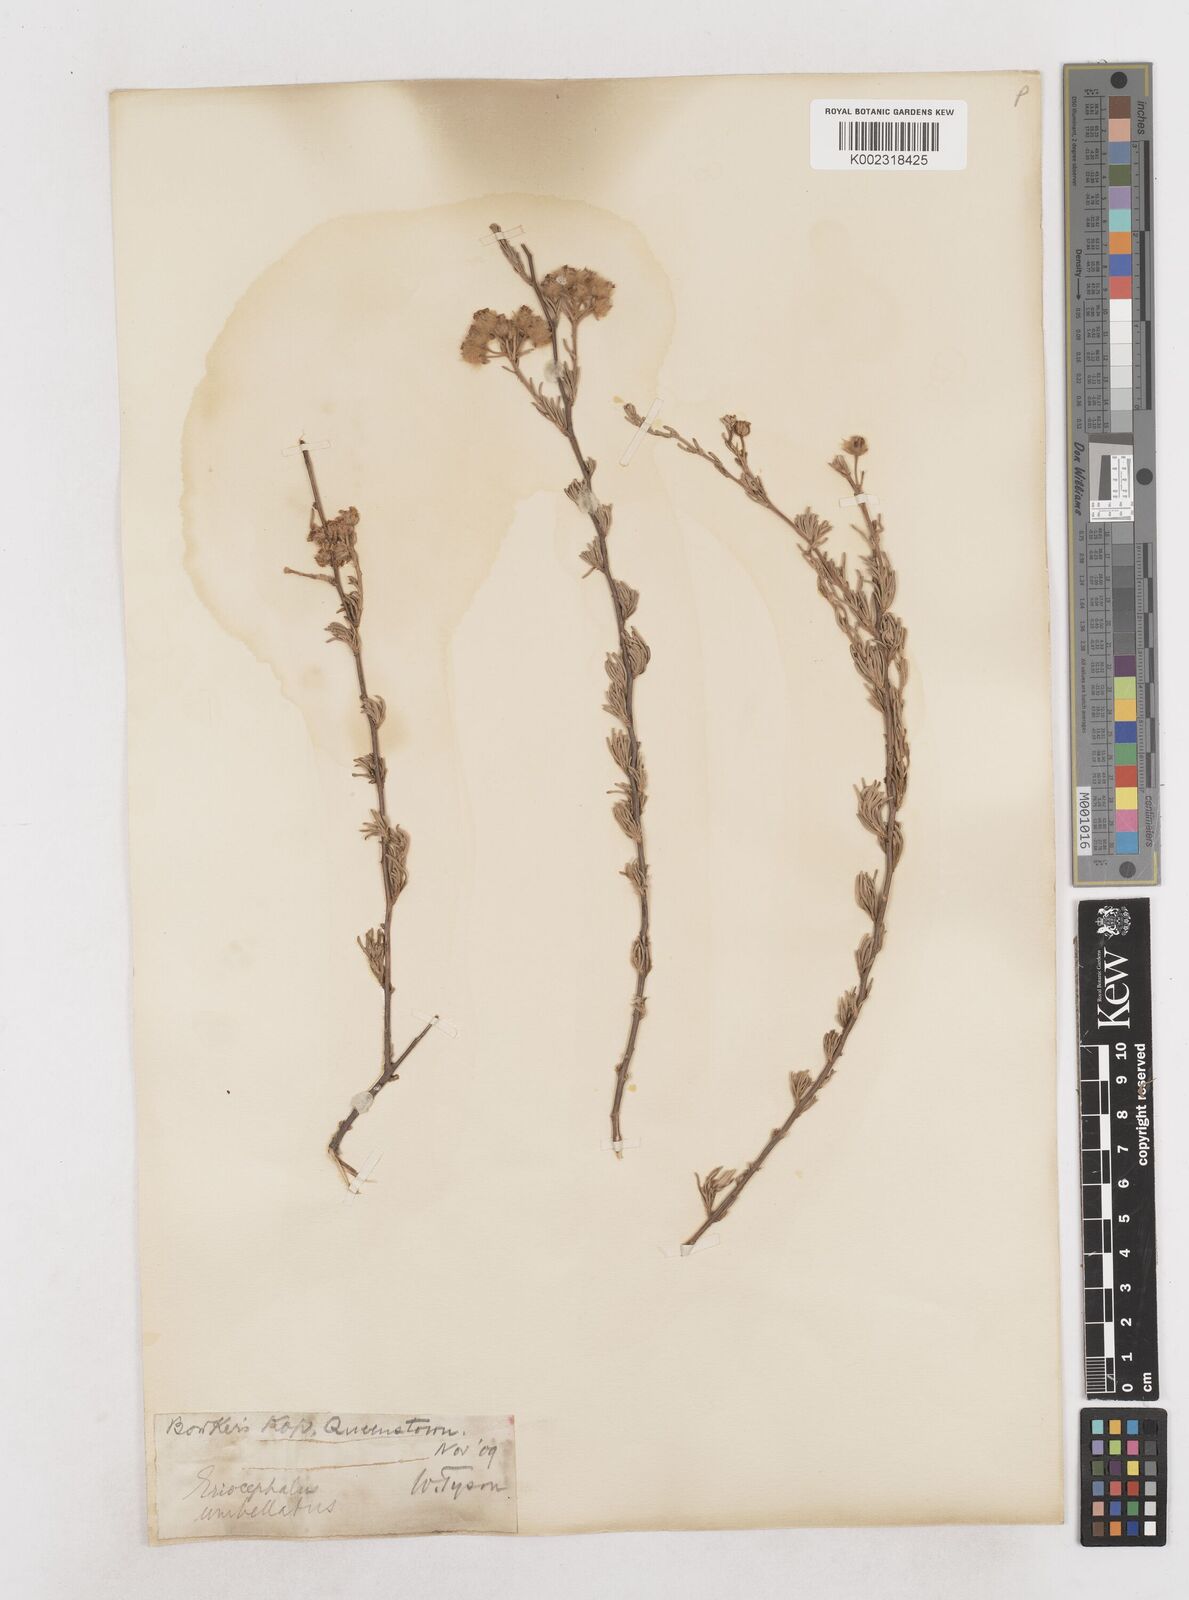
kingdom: Plantae
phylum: Tracheophyta
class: Magnoliopsida
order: Asterales
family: Asteraceae
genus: Eriocephalus
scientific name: Eriocephalus
